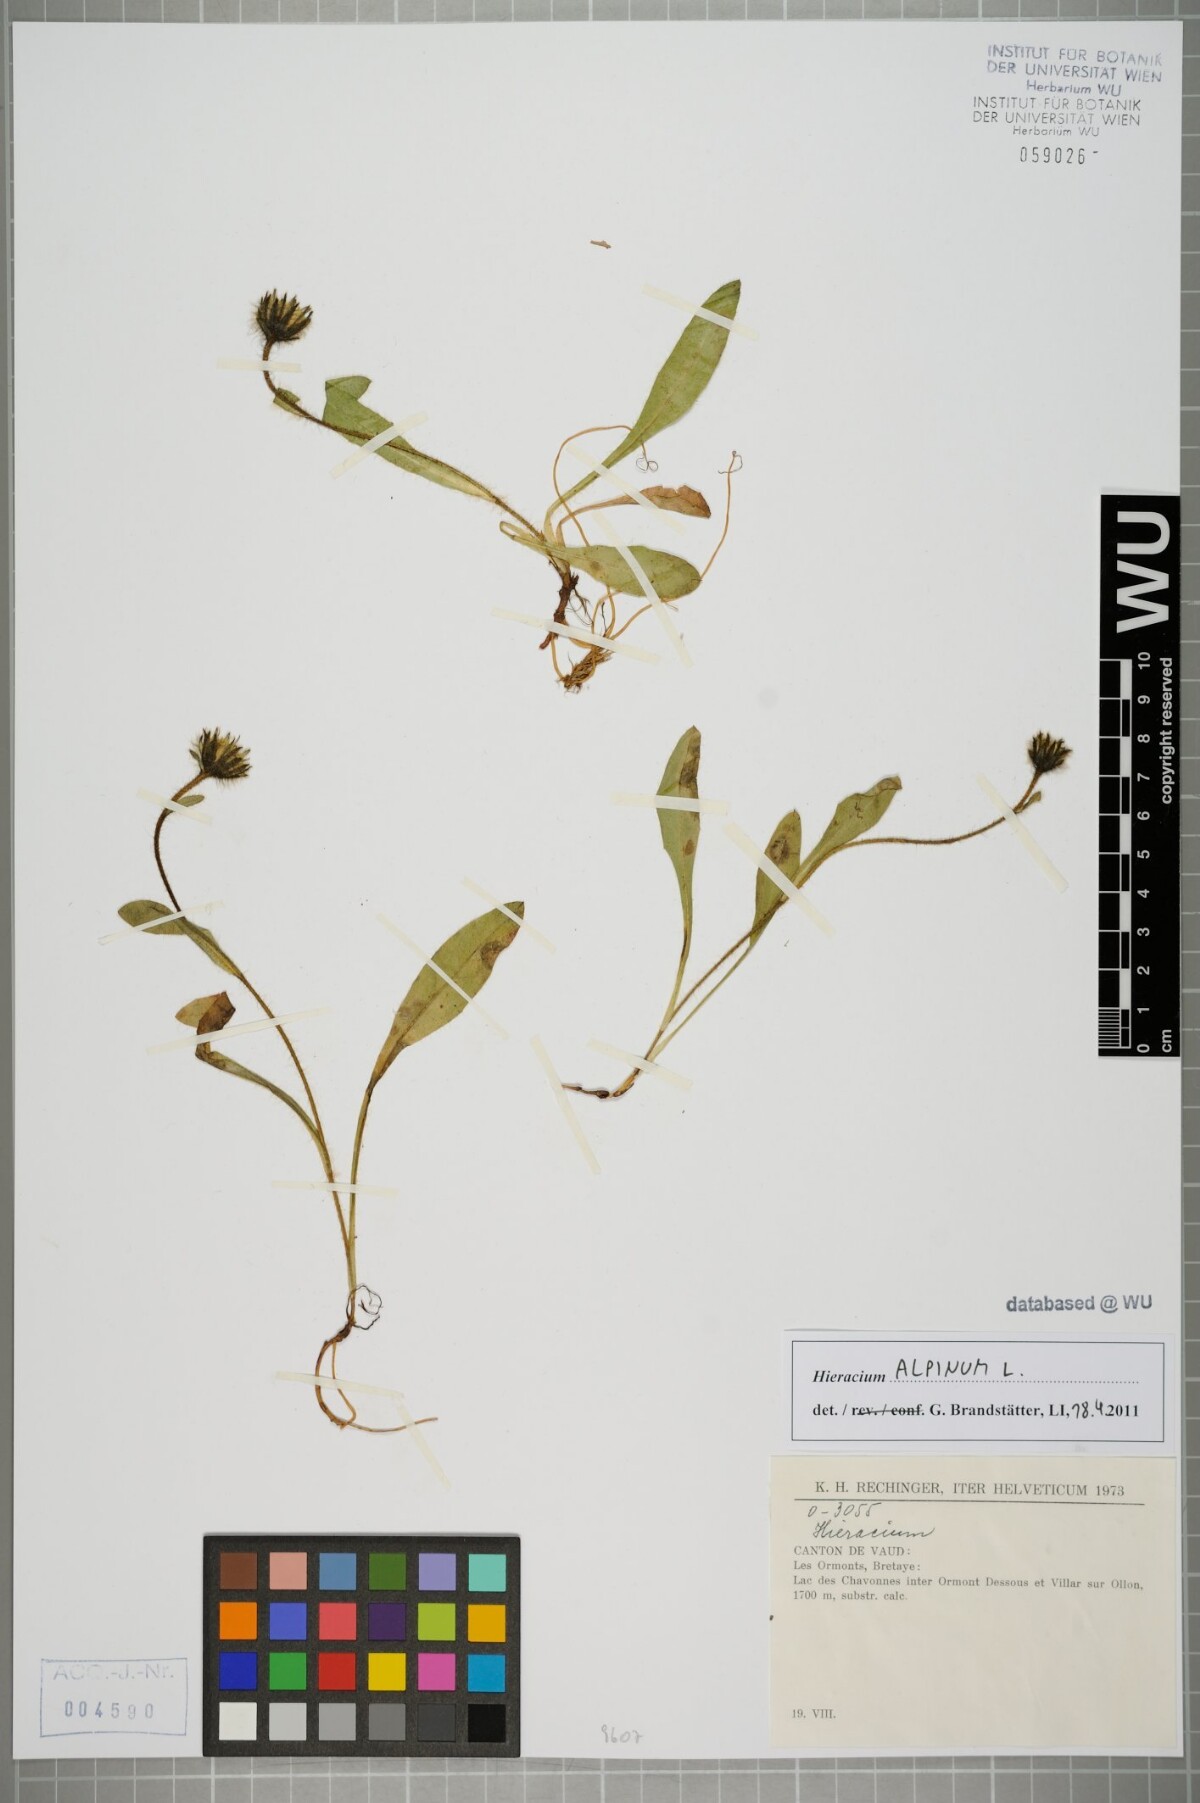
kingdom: Plantae
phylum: Tracheophyta
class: Magnoliopsida
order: Asterales
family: Asteraceae
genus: Hieracium
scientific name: Hieracium alpinum
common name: Alpine hawkweed
